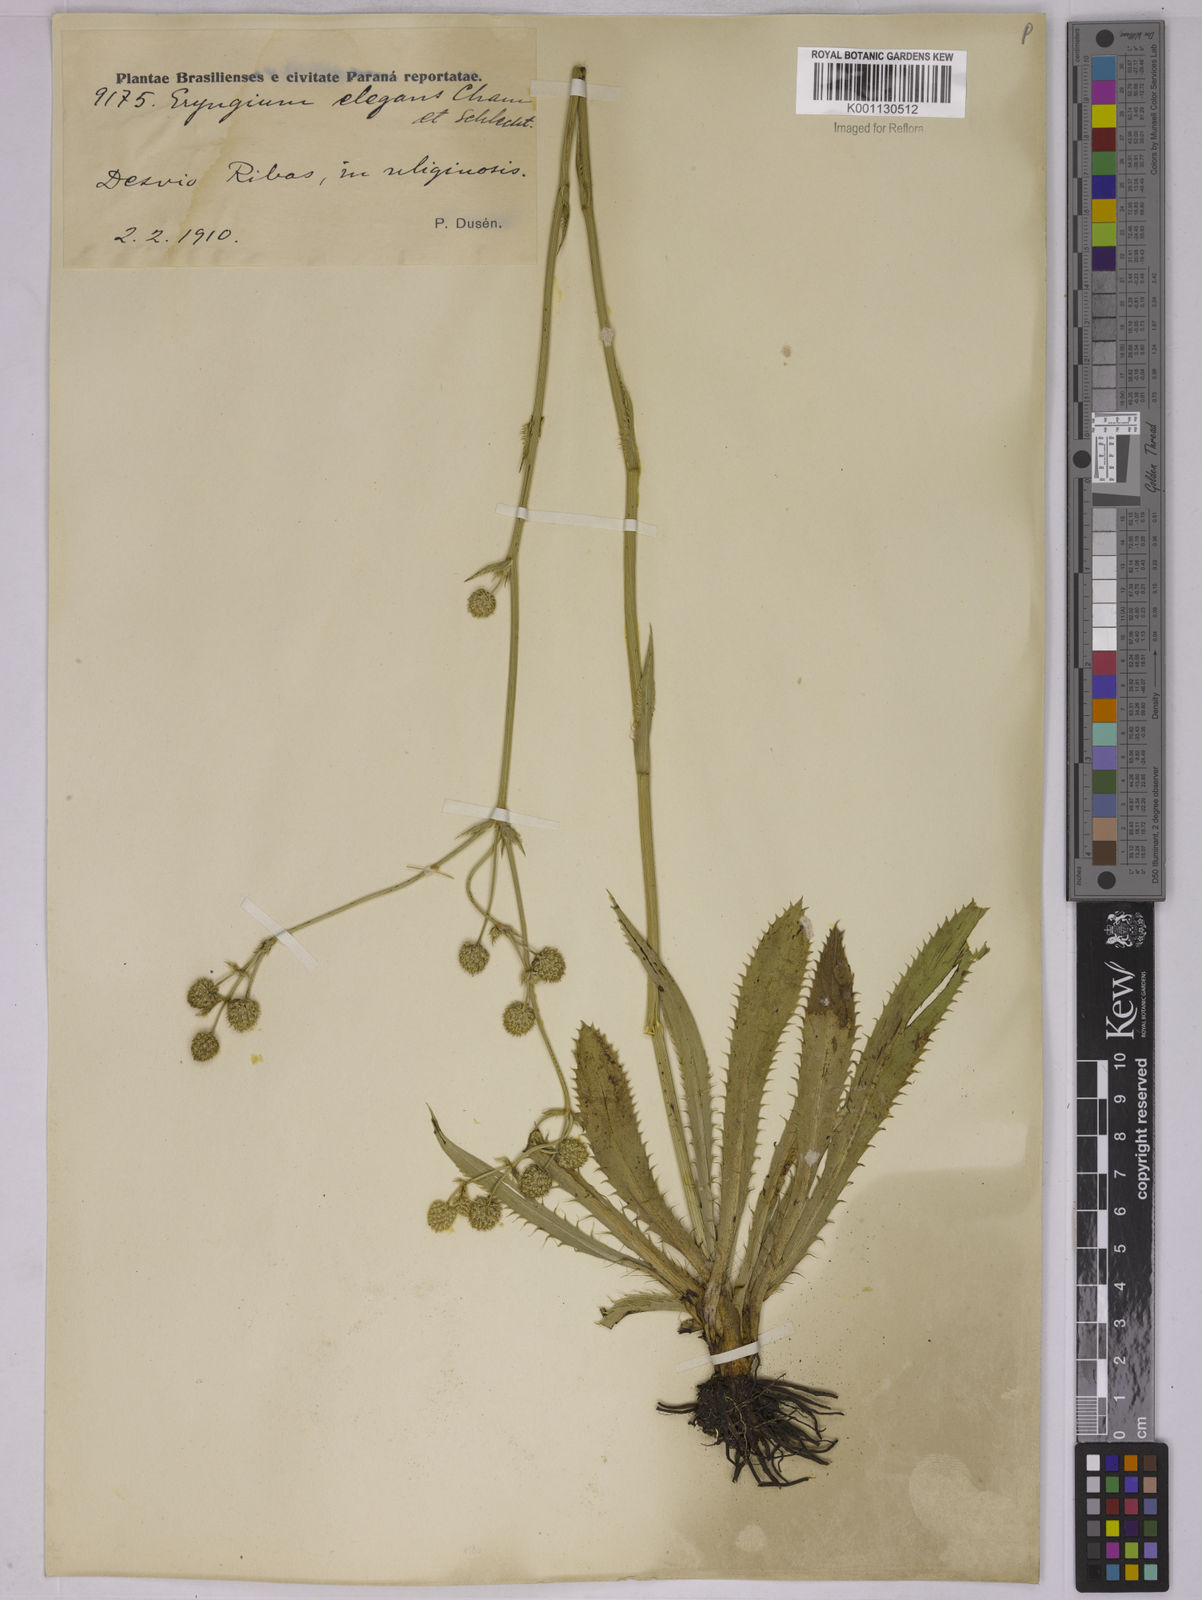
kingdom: Plantae
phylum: Tracheophyta
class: Magnoliopsida
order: Apiales
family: Apiaceae
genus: Eryngium
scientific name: Eryngium elegans
